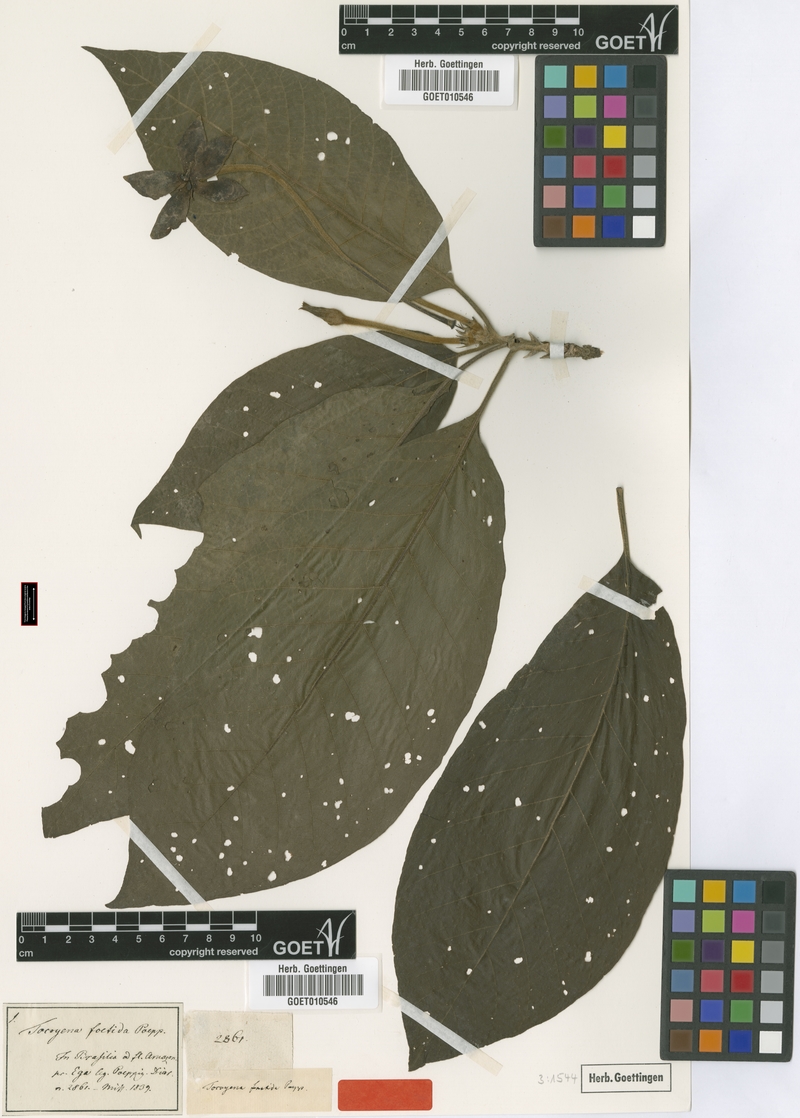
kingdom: Plantae
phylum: Tracheophyta
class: Magnoliopsida
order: Gentianales
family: Rubiaceae
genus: Tocoyena
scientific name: Tocoyena foetida
